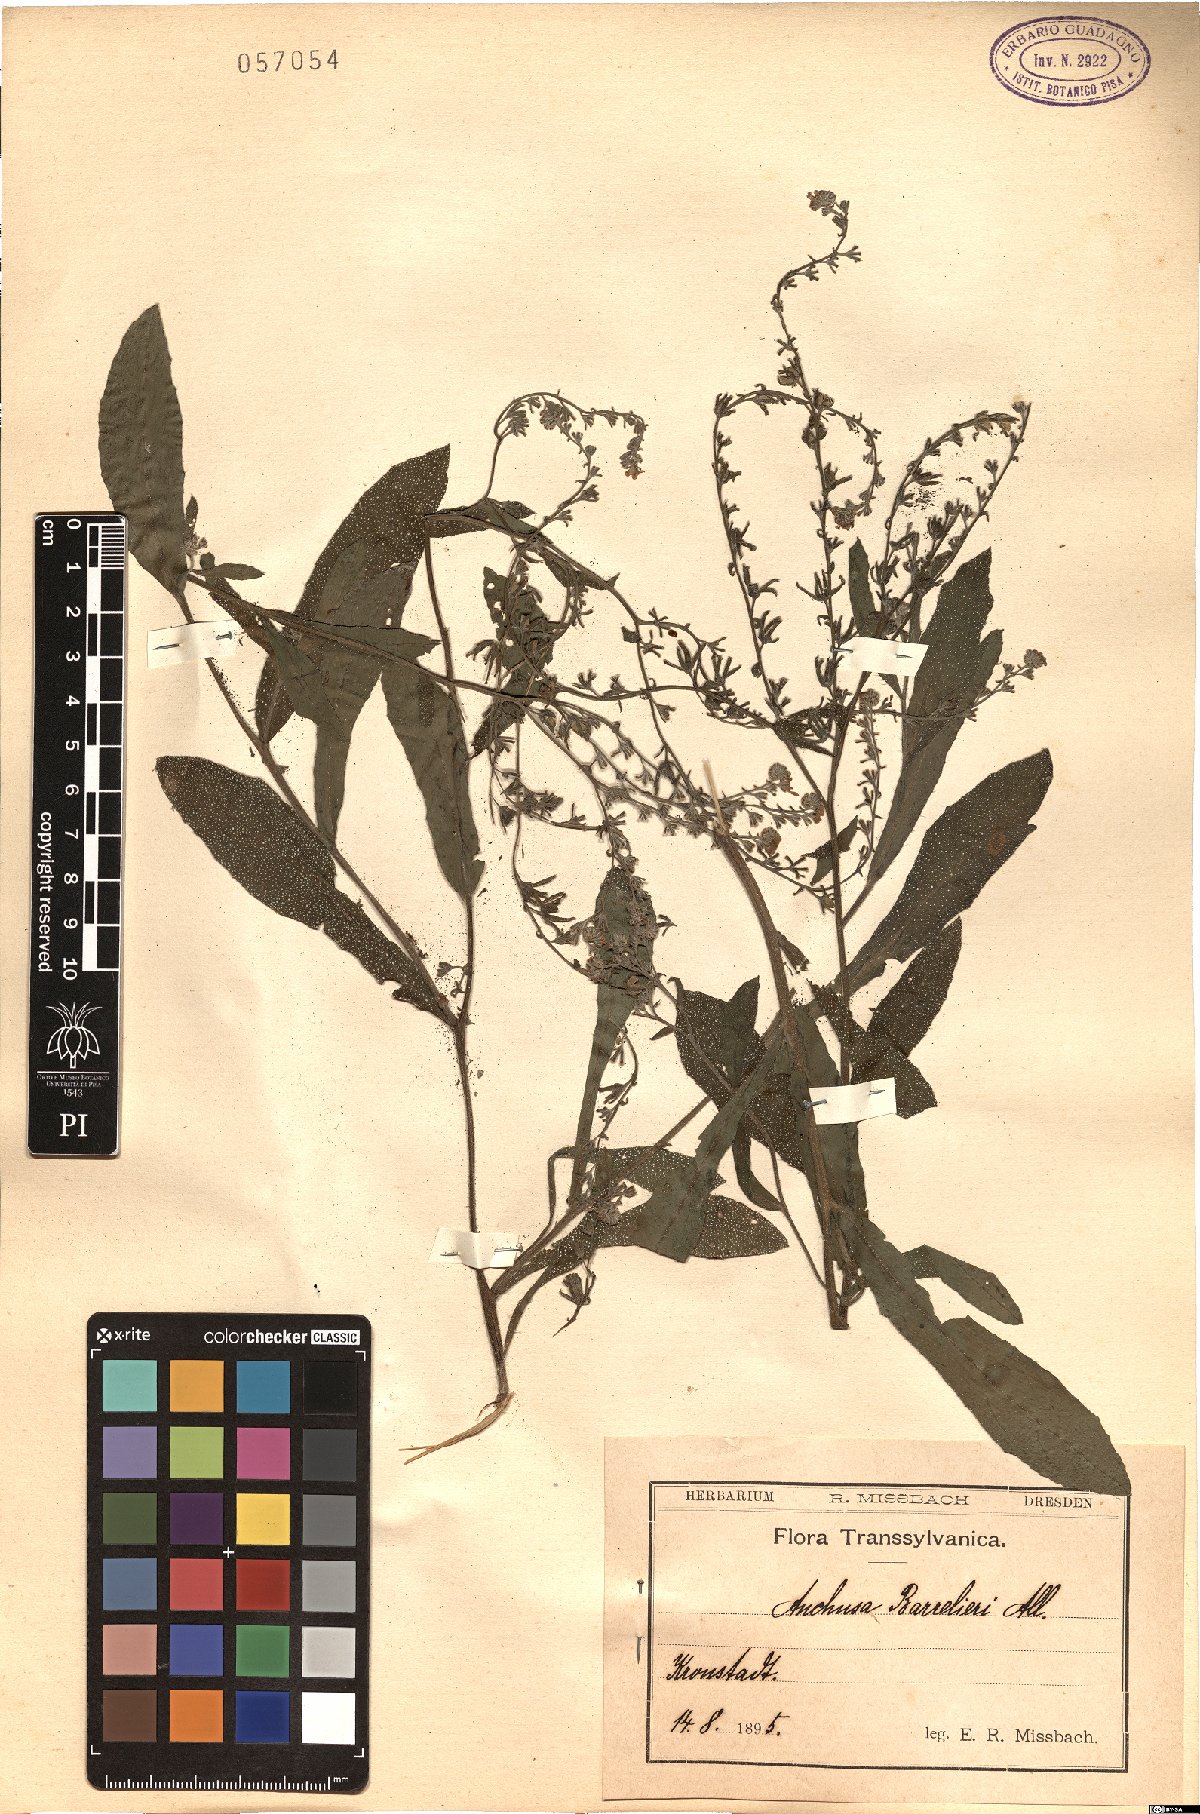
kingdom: Plantae
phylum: Tracheophyta
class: Magnoliopsida
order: Boraginales
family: Boraginaceae
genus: Cynoglottis
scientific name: Cynoglottis barrelieri
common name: False alkanet
